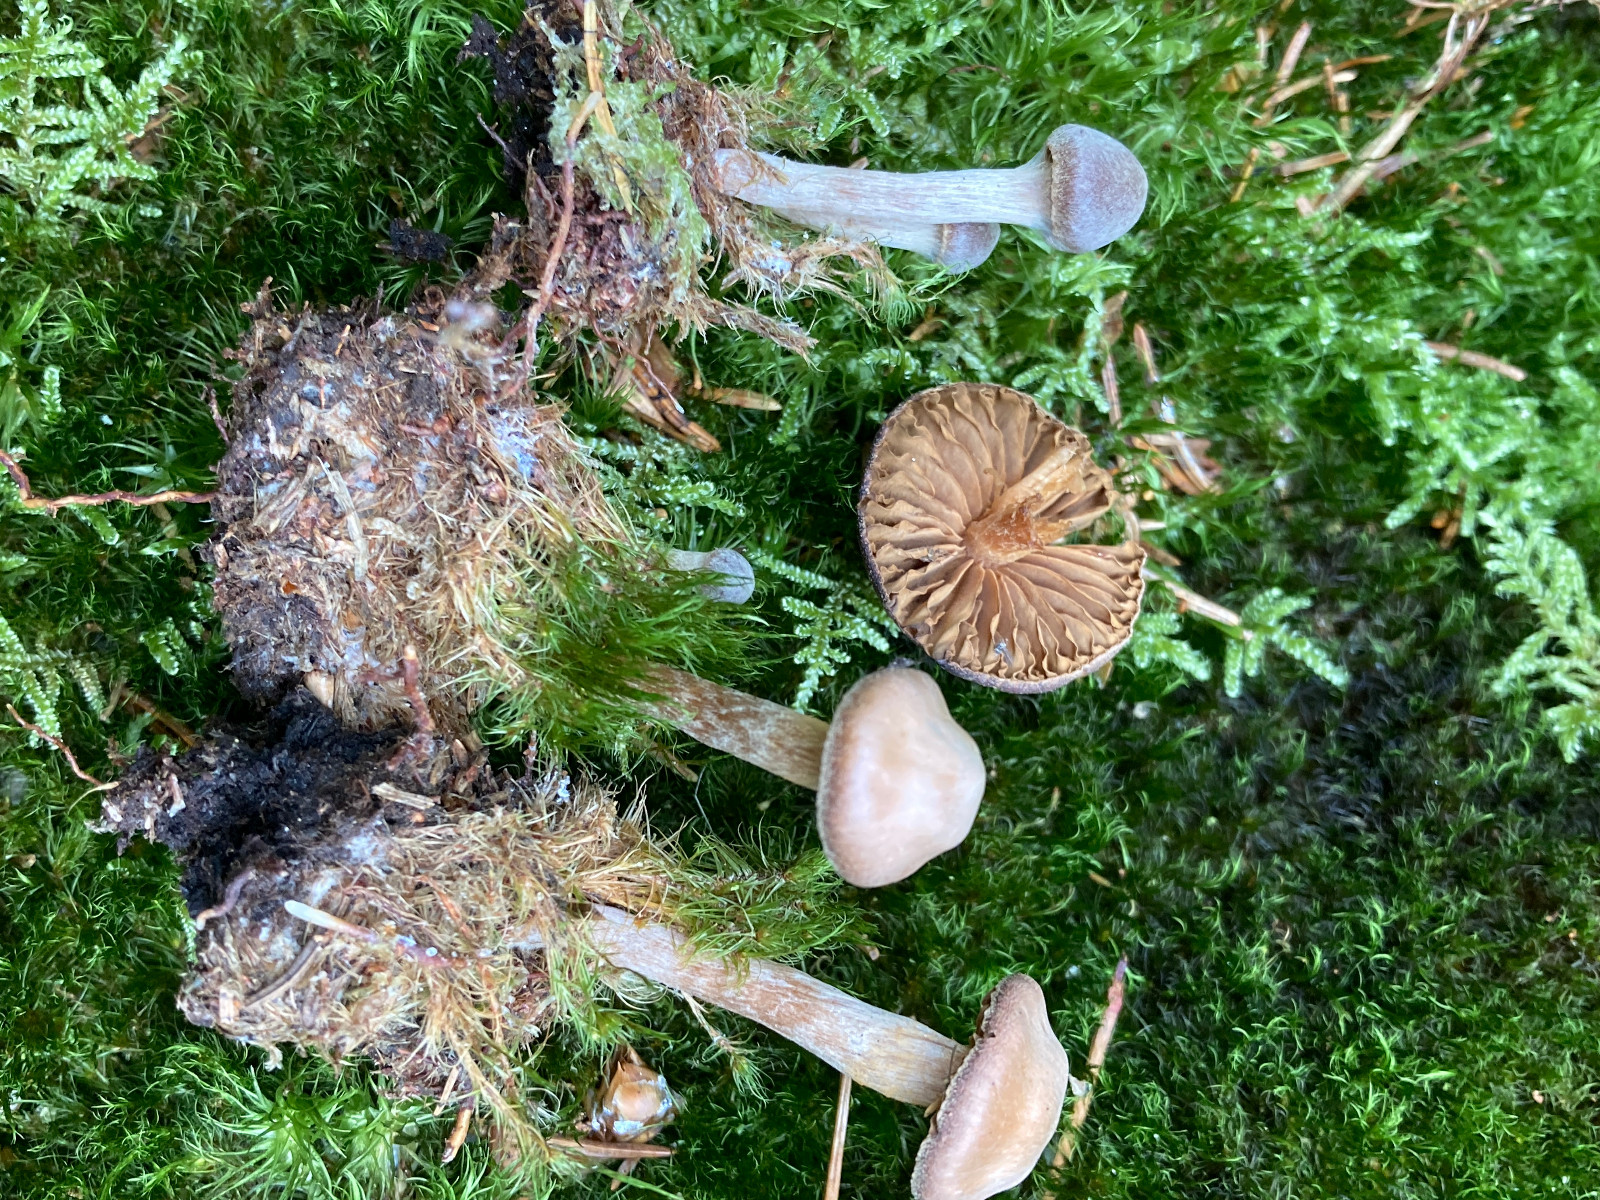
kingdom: Fungi
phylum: Basidiomycota
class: Agaricomycetes
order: Agaricales
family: Cortinariaceae
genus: Cortinarius
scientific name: Cortinarius scoticus
